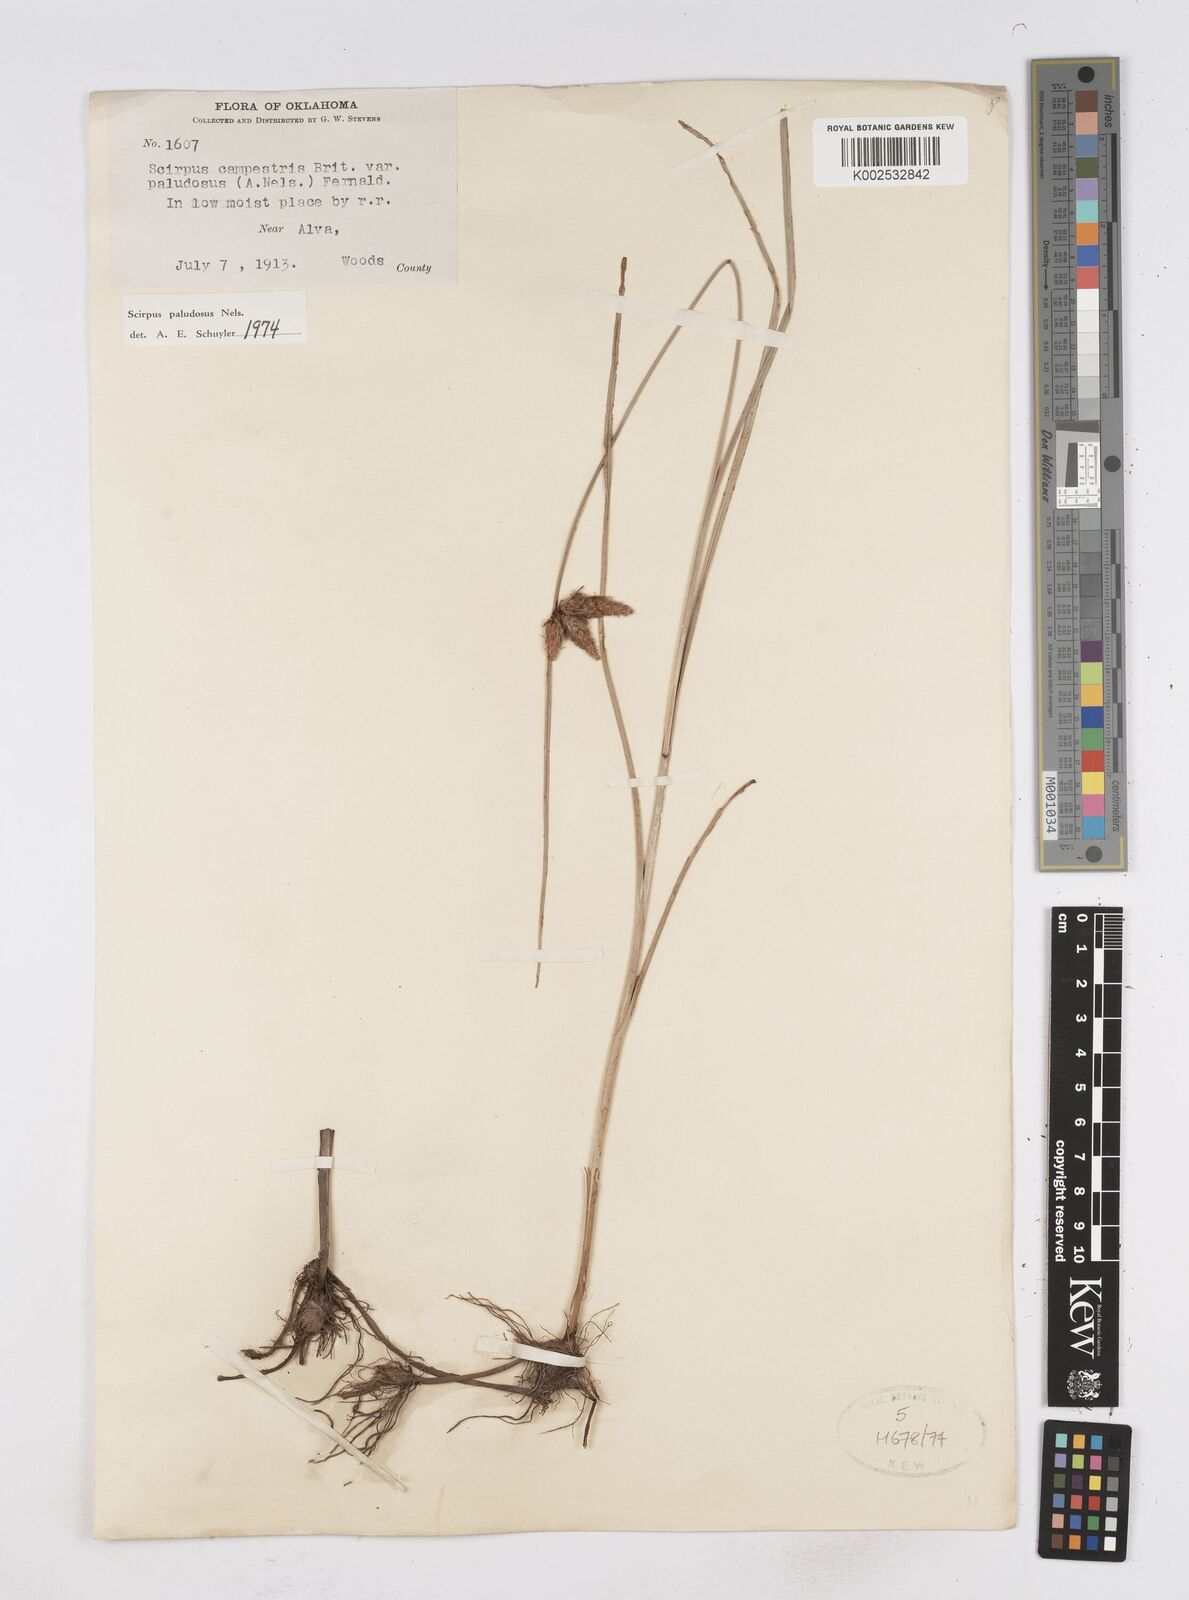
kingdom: Plantae
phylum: Tracheophyta
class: Liliopsida
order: Poales
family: Cyperaceae
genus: Bolboschoenus
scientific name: Bolboschoenus maritimus
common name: Sea club-rush
